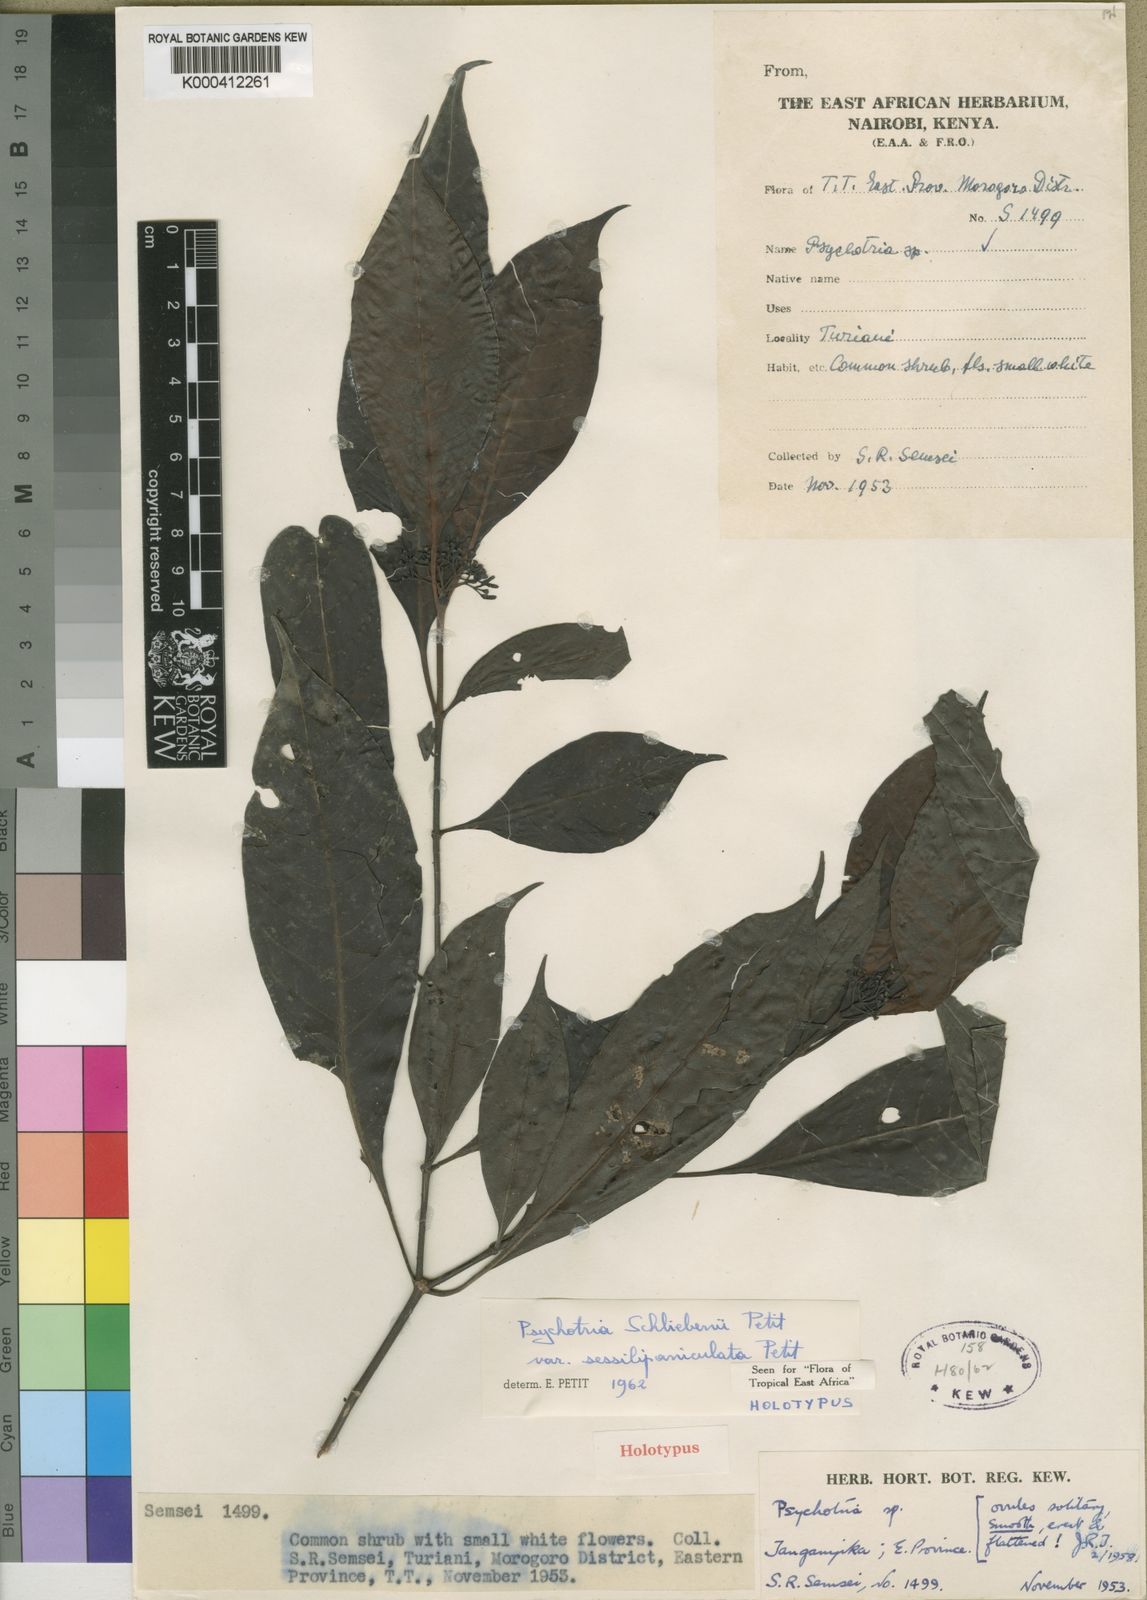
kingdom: Plantae
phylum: Tracheophyta
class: Magnoliopsida
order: Gentianales
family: Rubiaceae
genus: Psychotria
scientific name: Psychotria schliebenii
